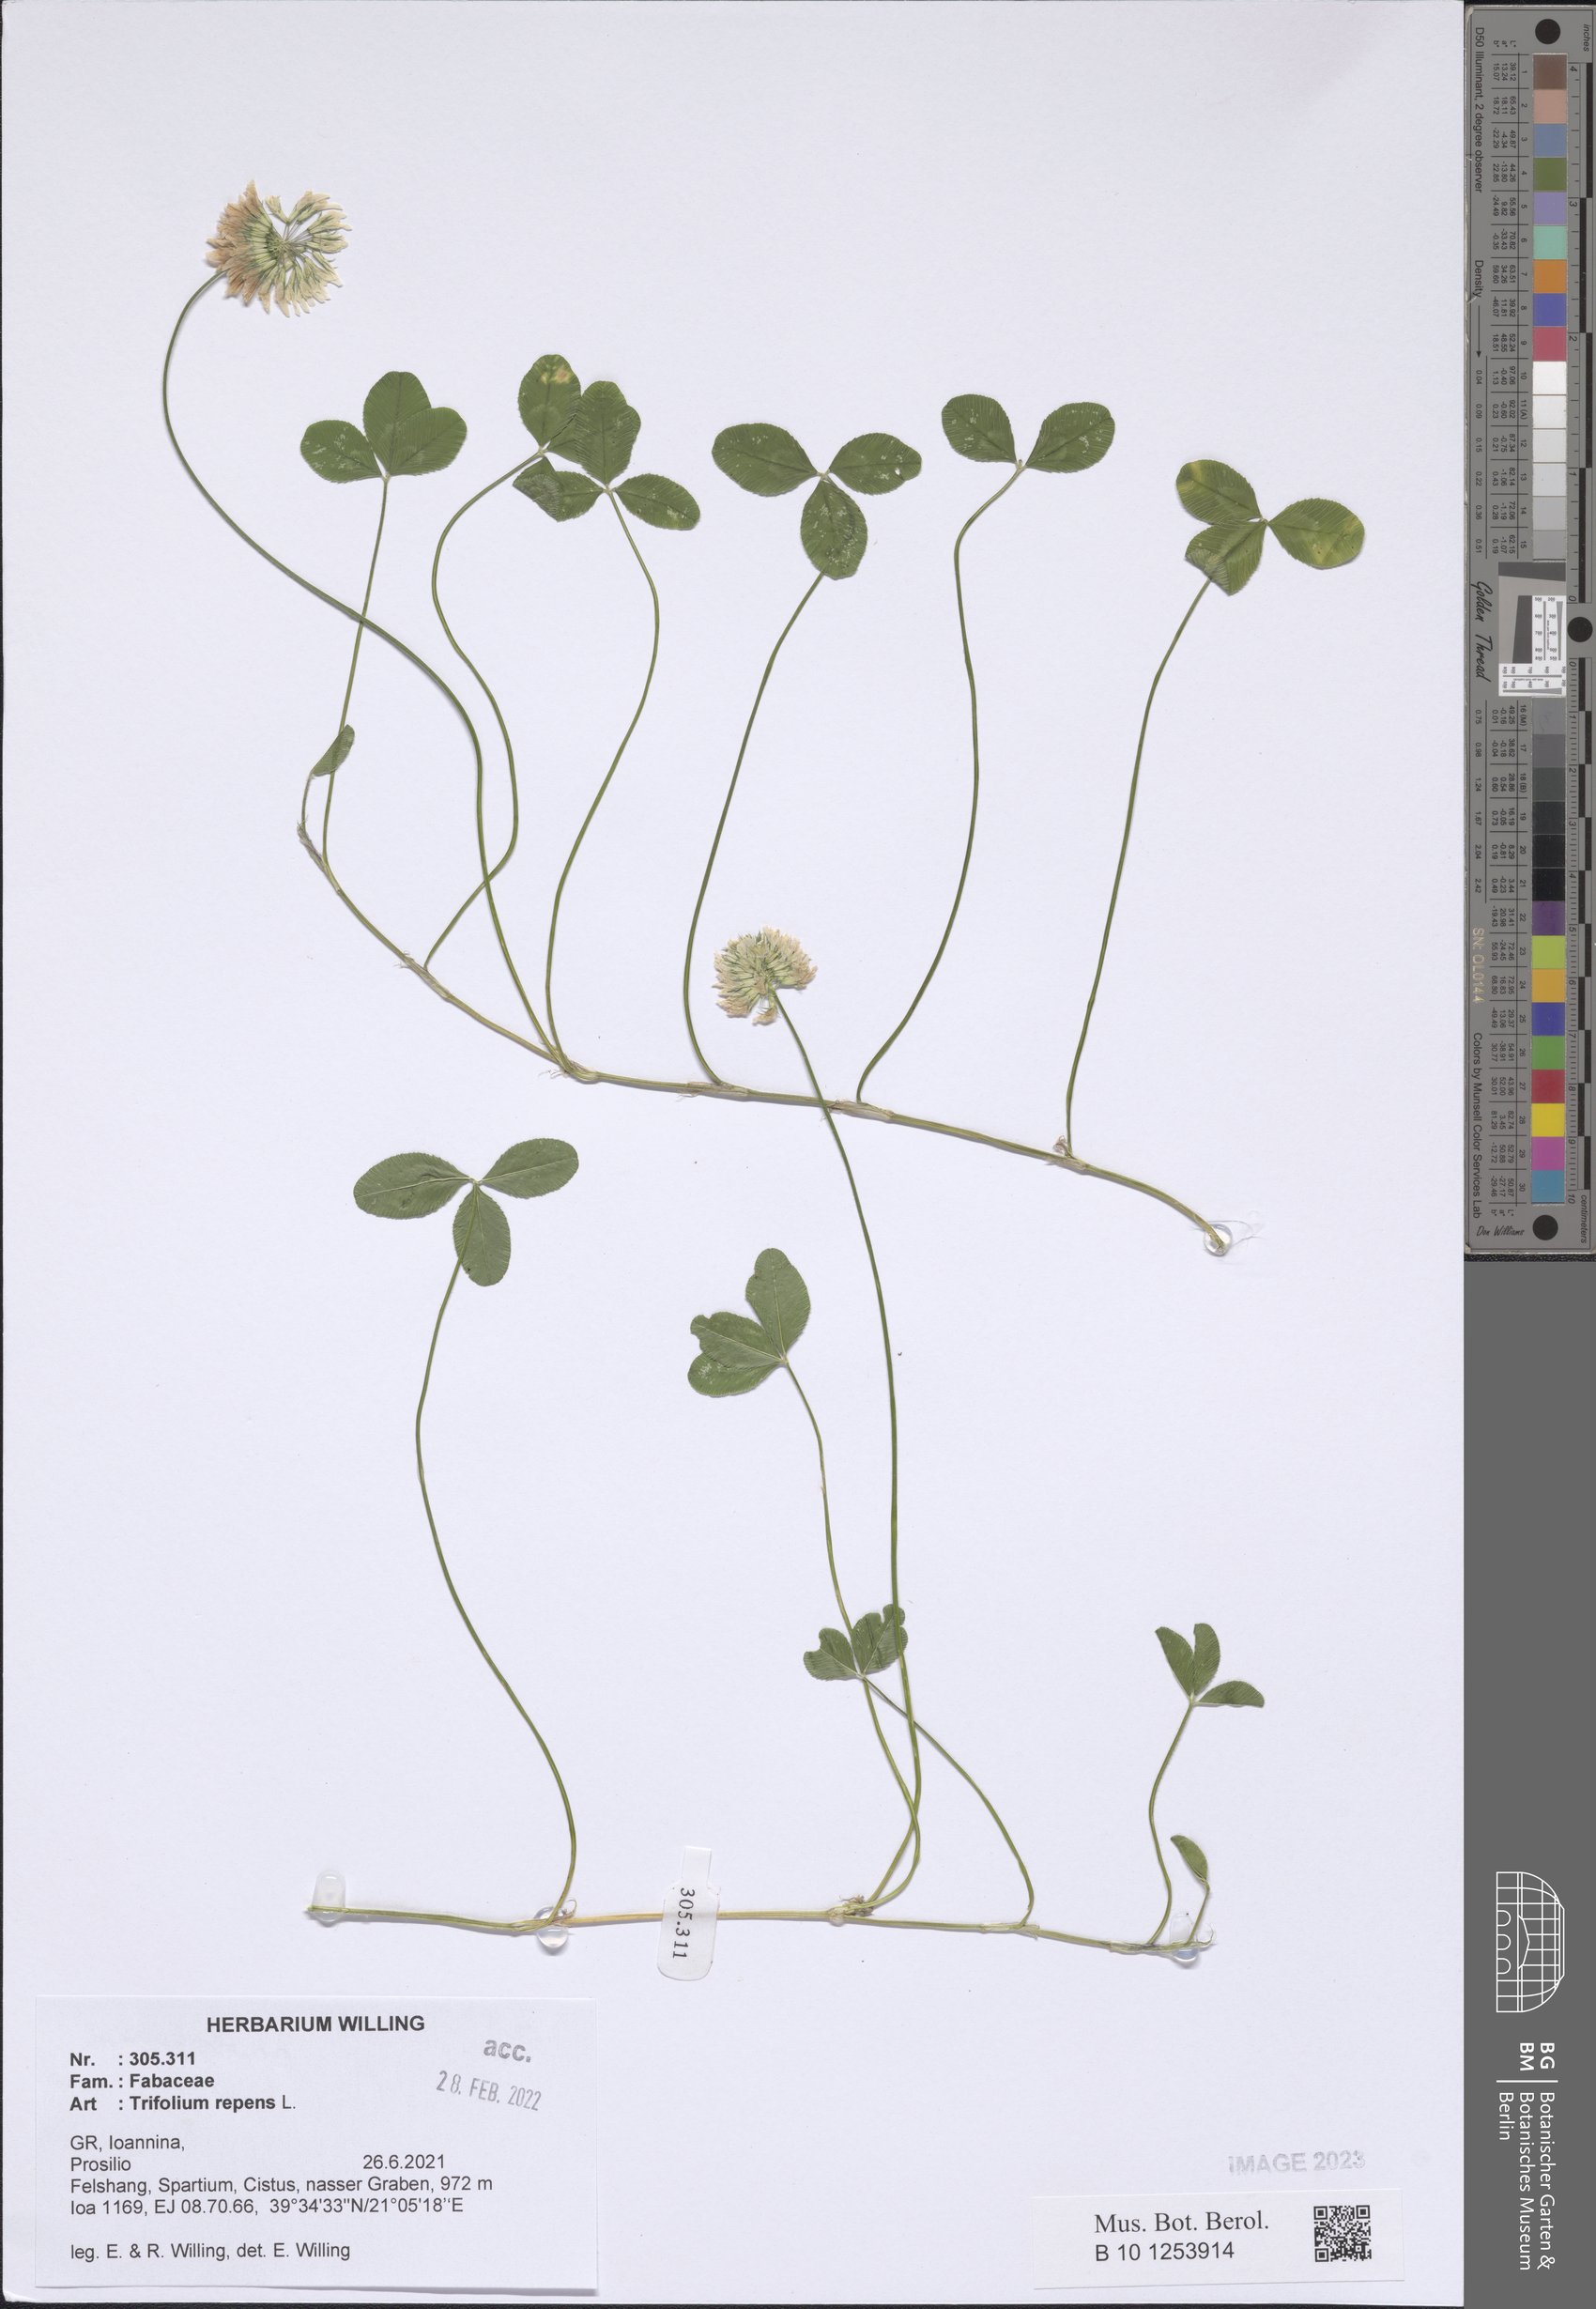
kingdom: Plantae
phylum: Tracheophyta
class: Magnoliopsida
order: Fabales
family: Fabaceae
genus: Trifolium
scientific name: Trifolium repens
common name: White clover
